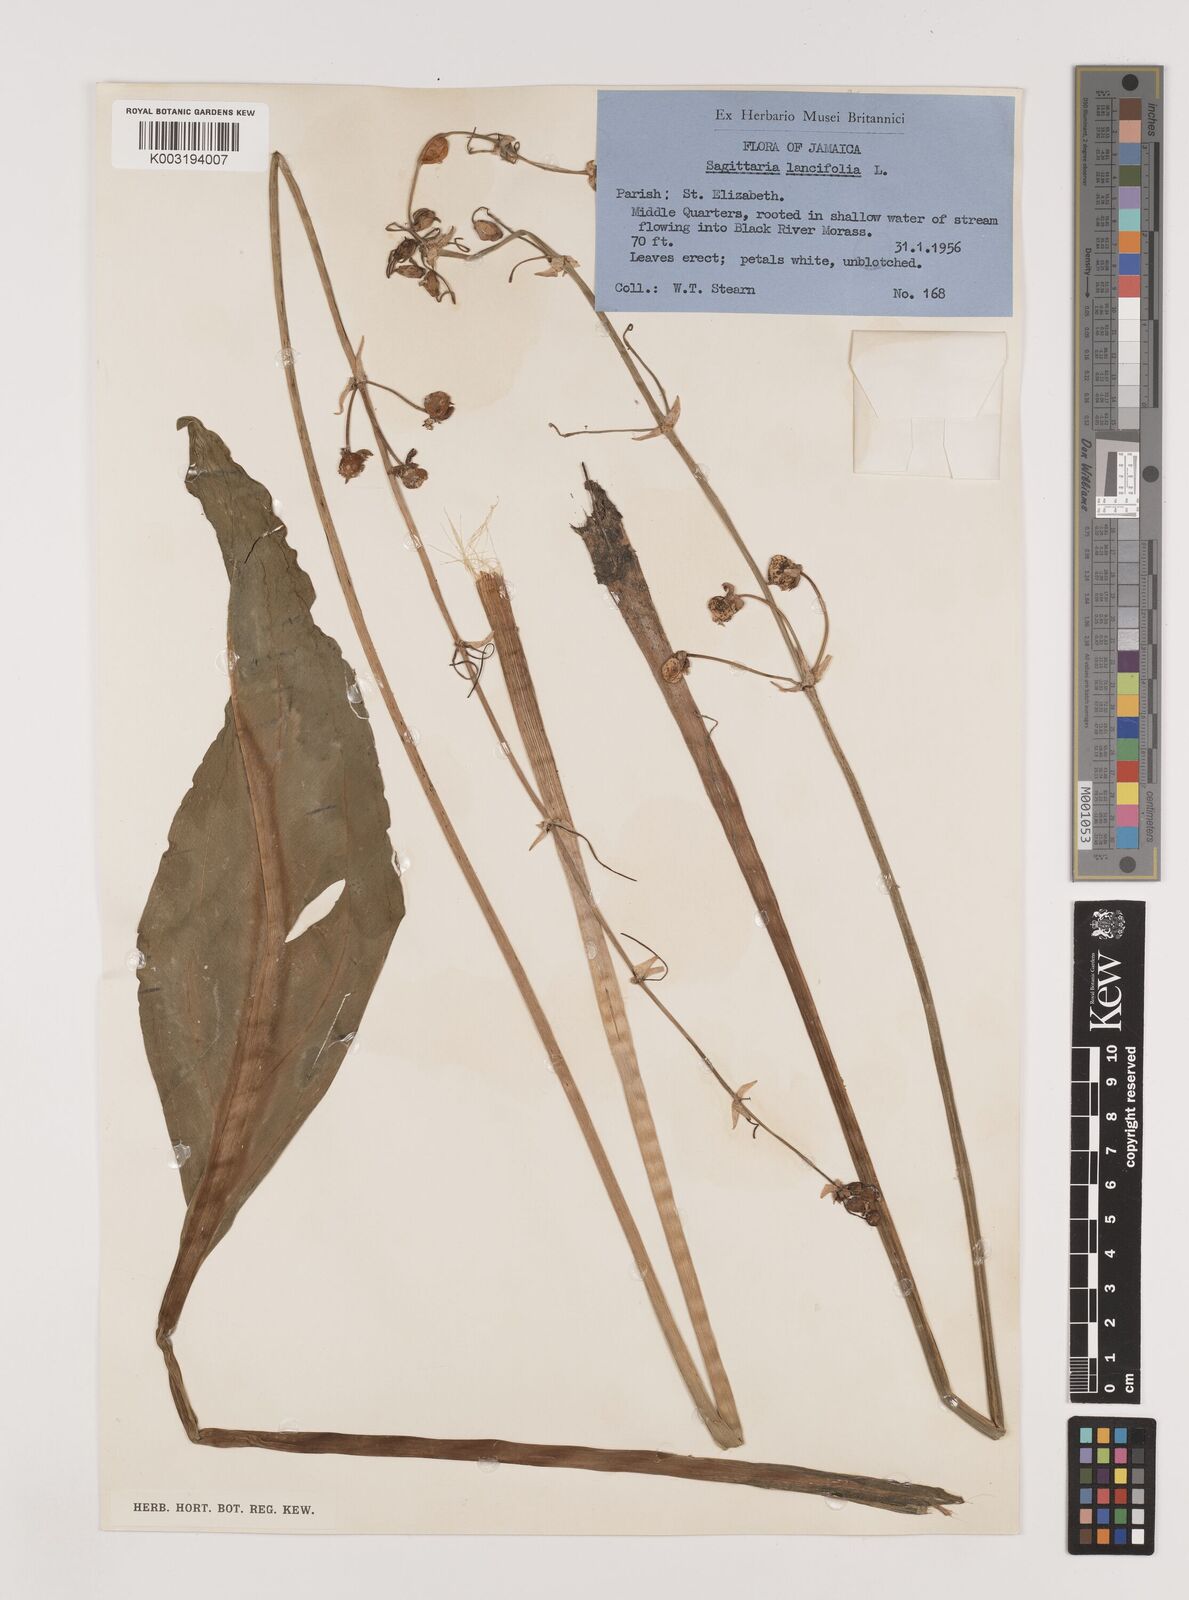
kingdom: Plantae
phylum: Tracheophyta
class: Liliopsida
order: Alismatales
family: Alismataceae
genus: Sagittaria
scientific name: Sagittaria lancifolia
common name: Lance-leaf arrowhead
